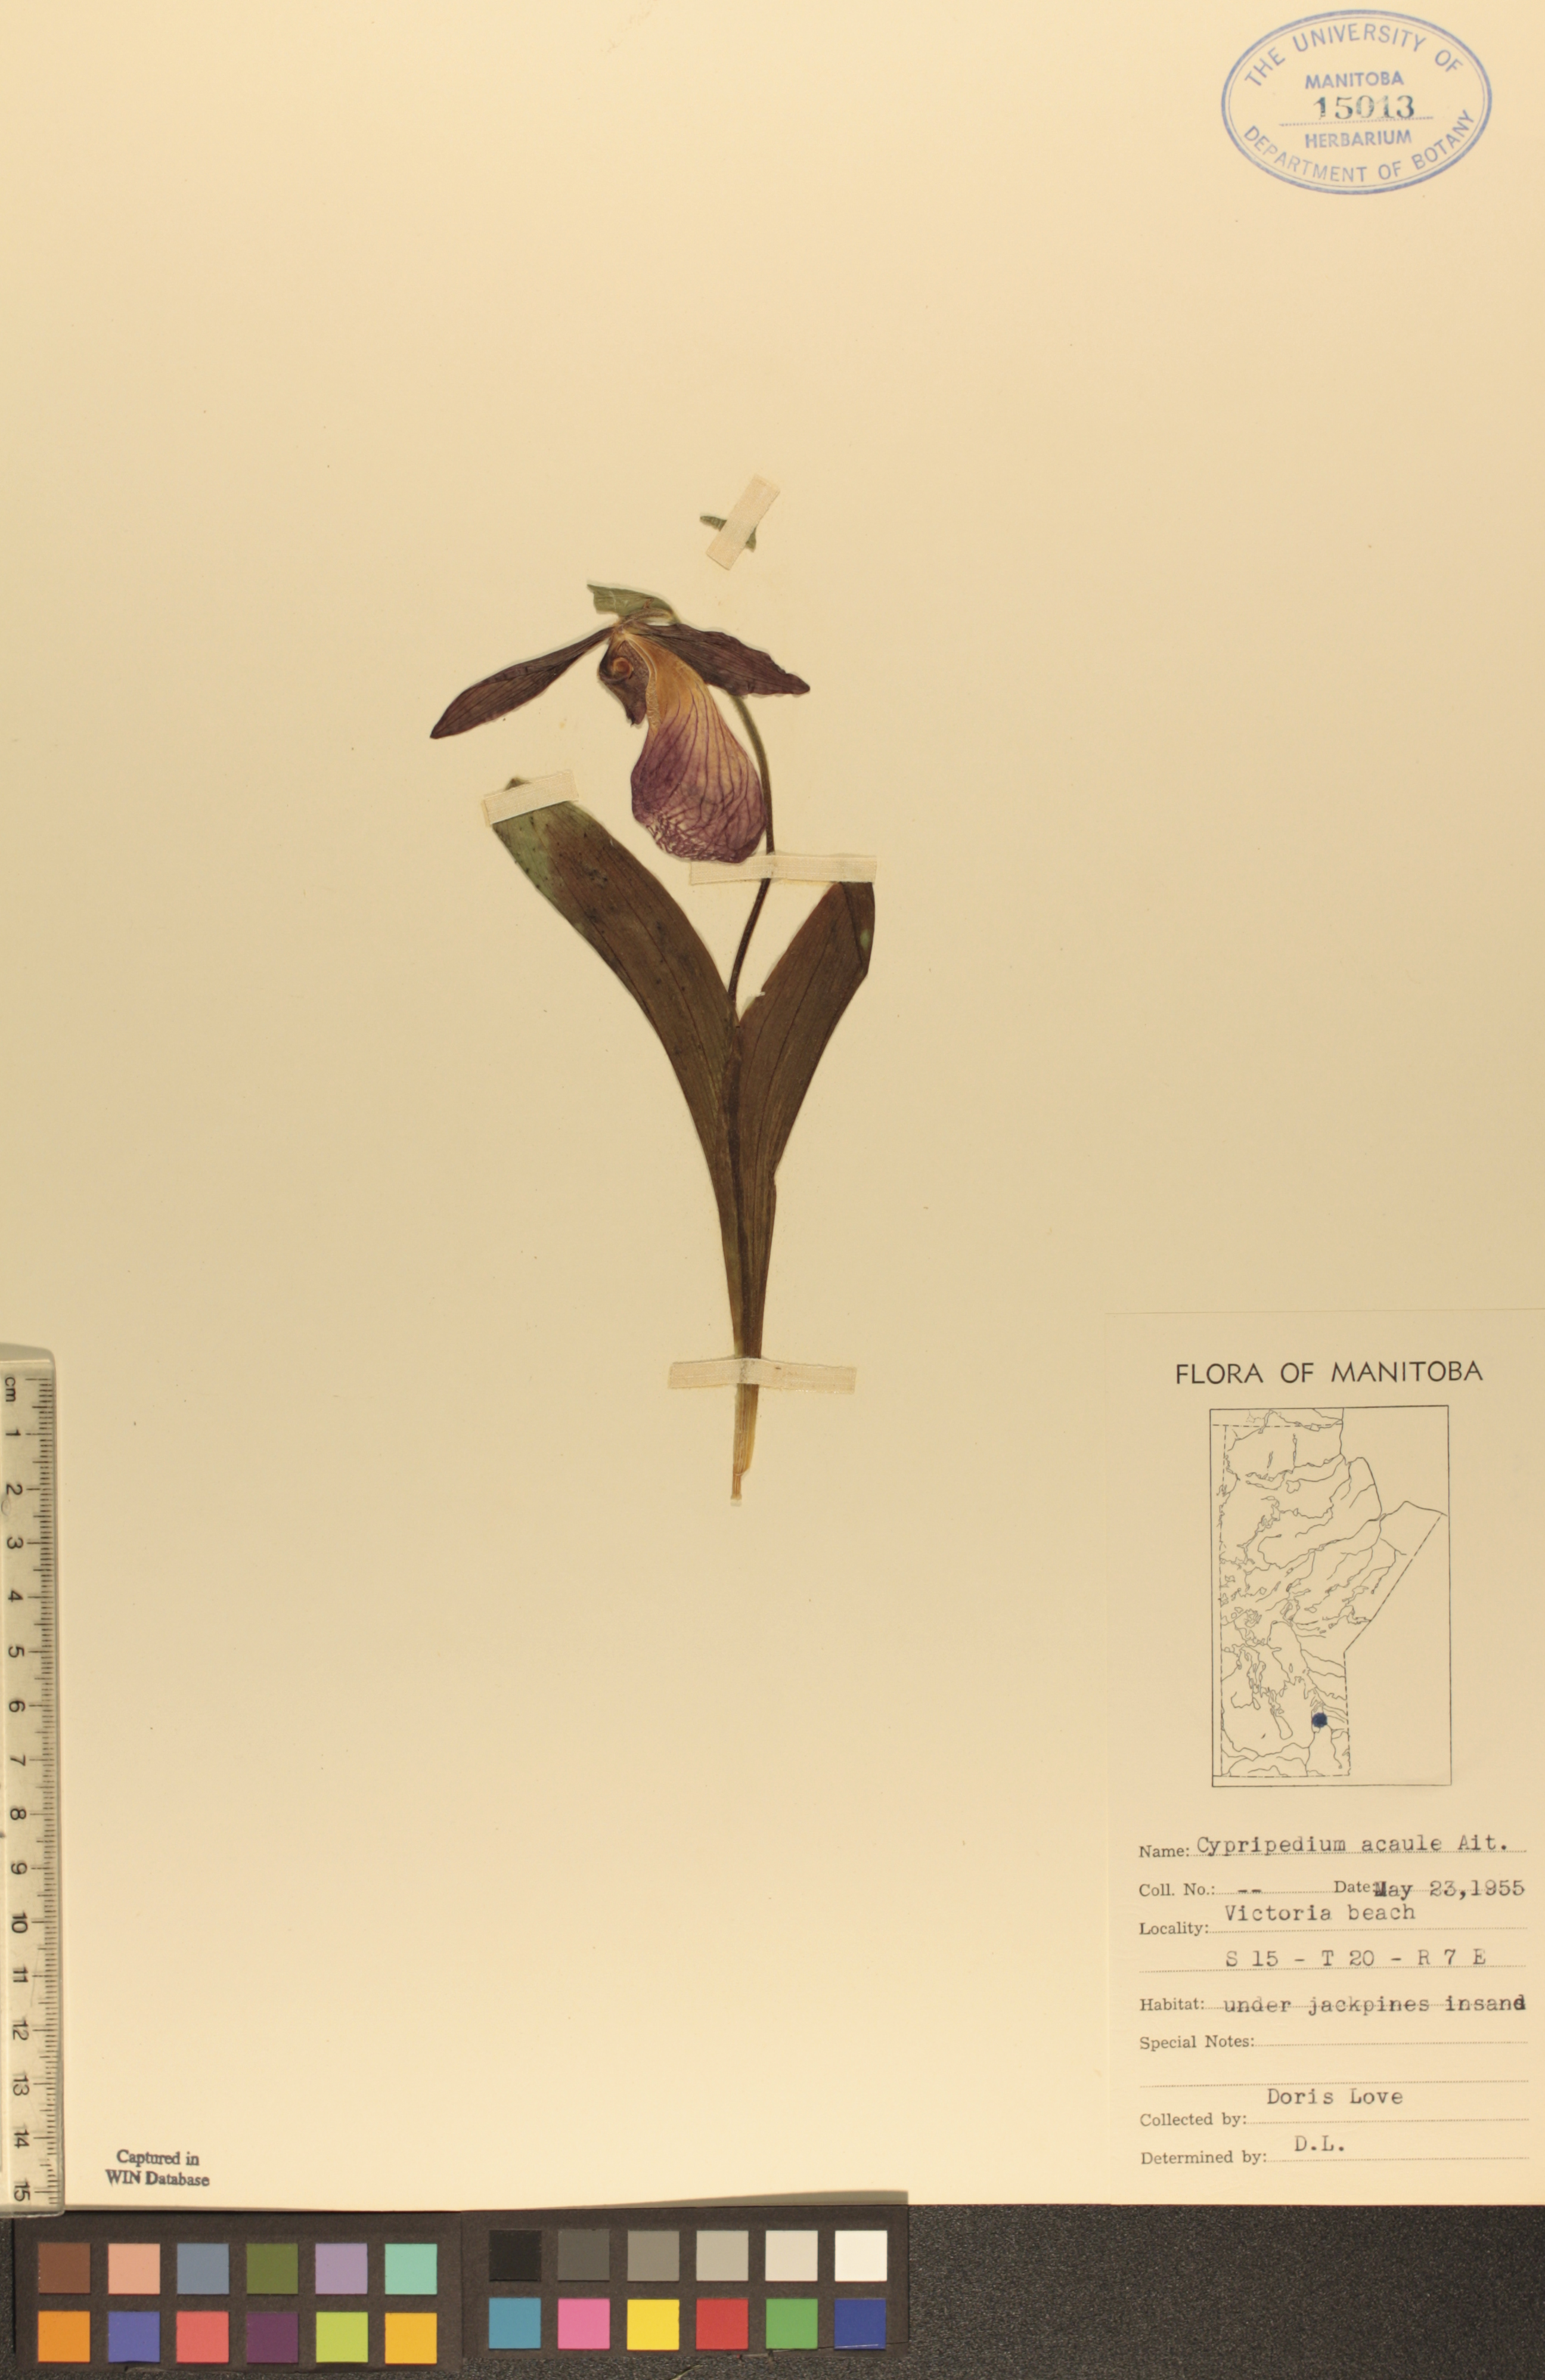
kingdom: Plantae
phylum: Tracheophyta
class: Liliopsida
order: Asparagales
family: Orchidaceae
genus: Cypripedium
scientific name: Cypripedium acaule
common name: Pink lady's-slipper
